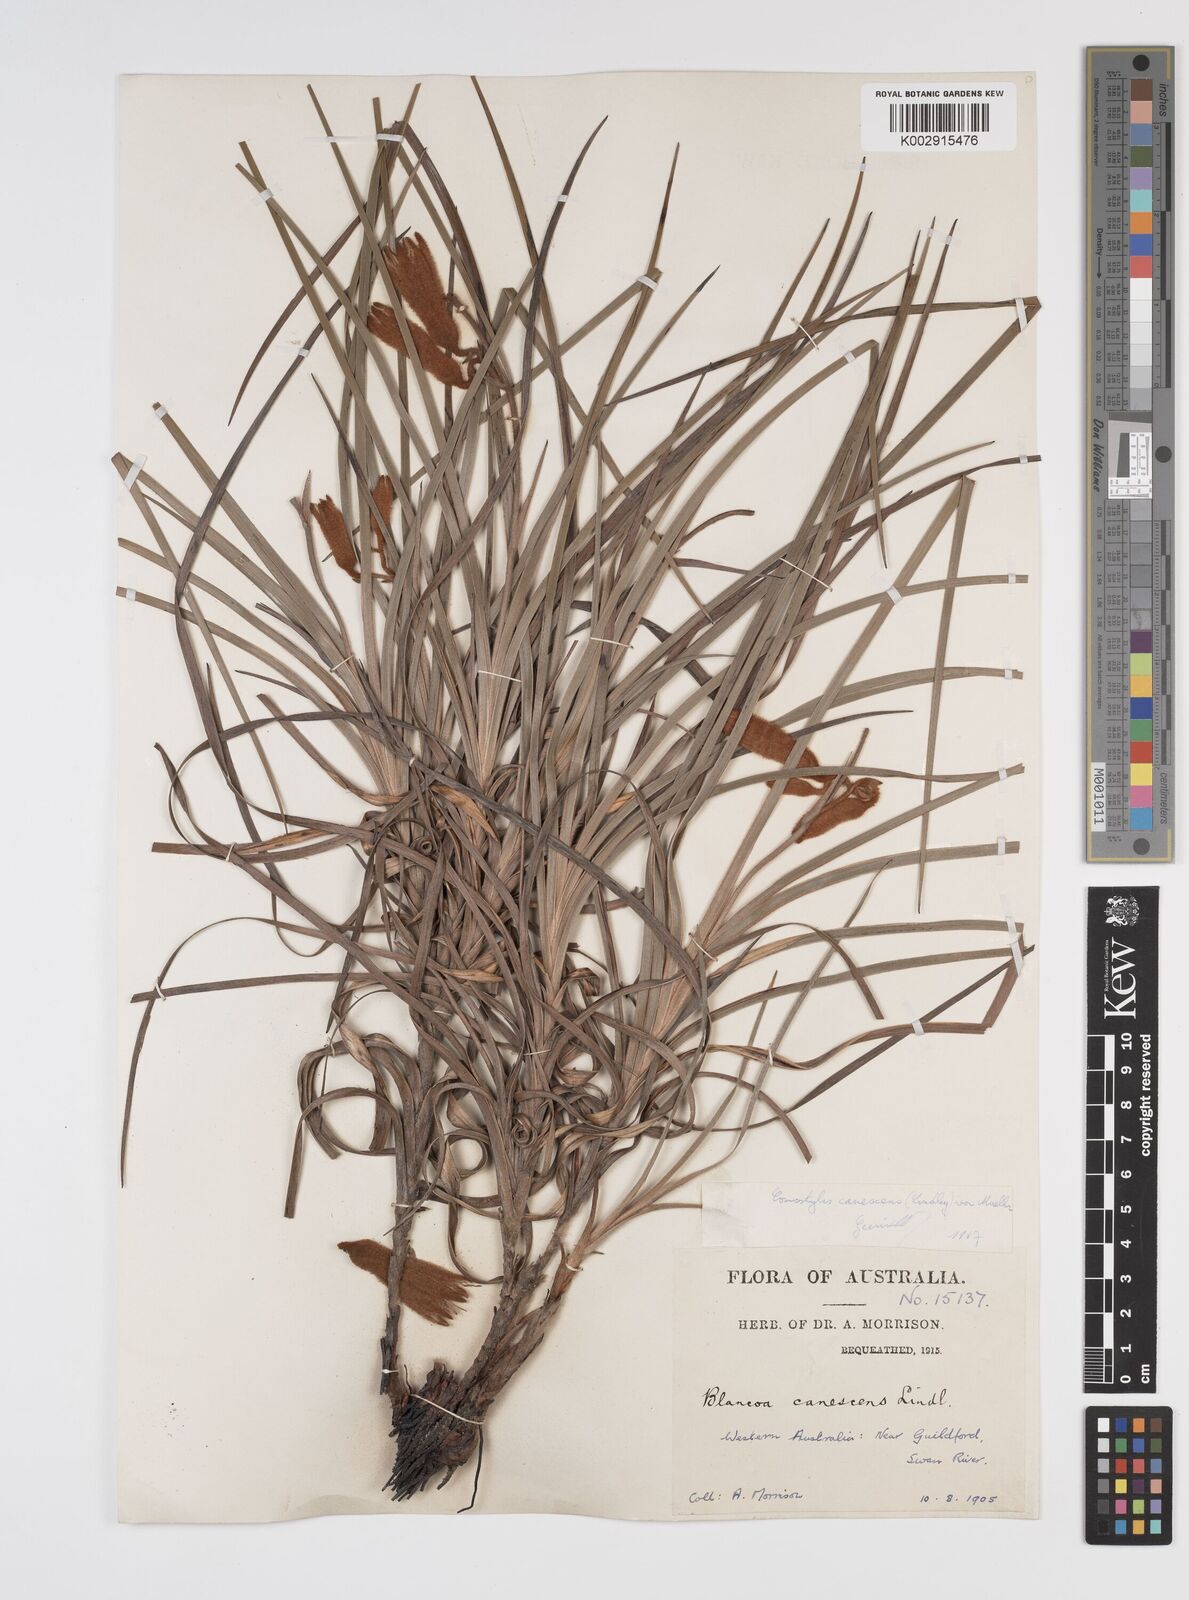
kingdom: Plantae
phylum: Tracheophyta
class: Liliopsida
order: Commelinales
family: Haemodoraceae
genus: Blancoa
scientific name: Blancoa canescens
